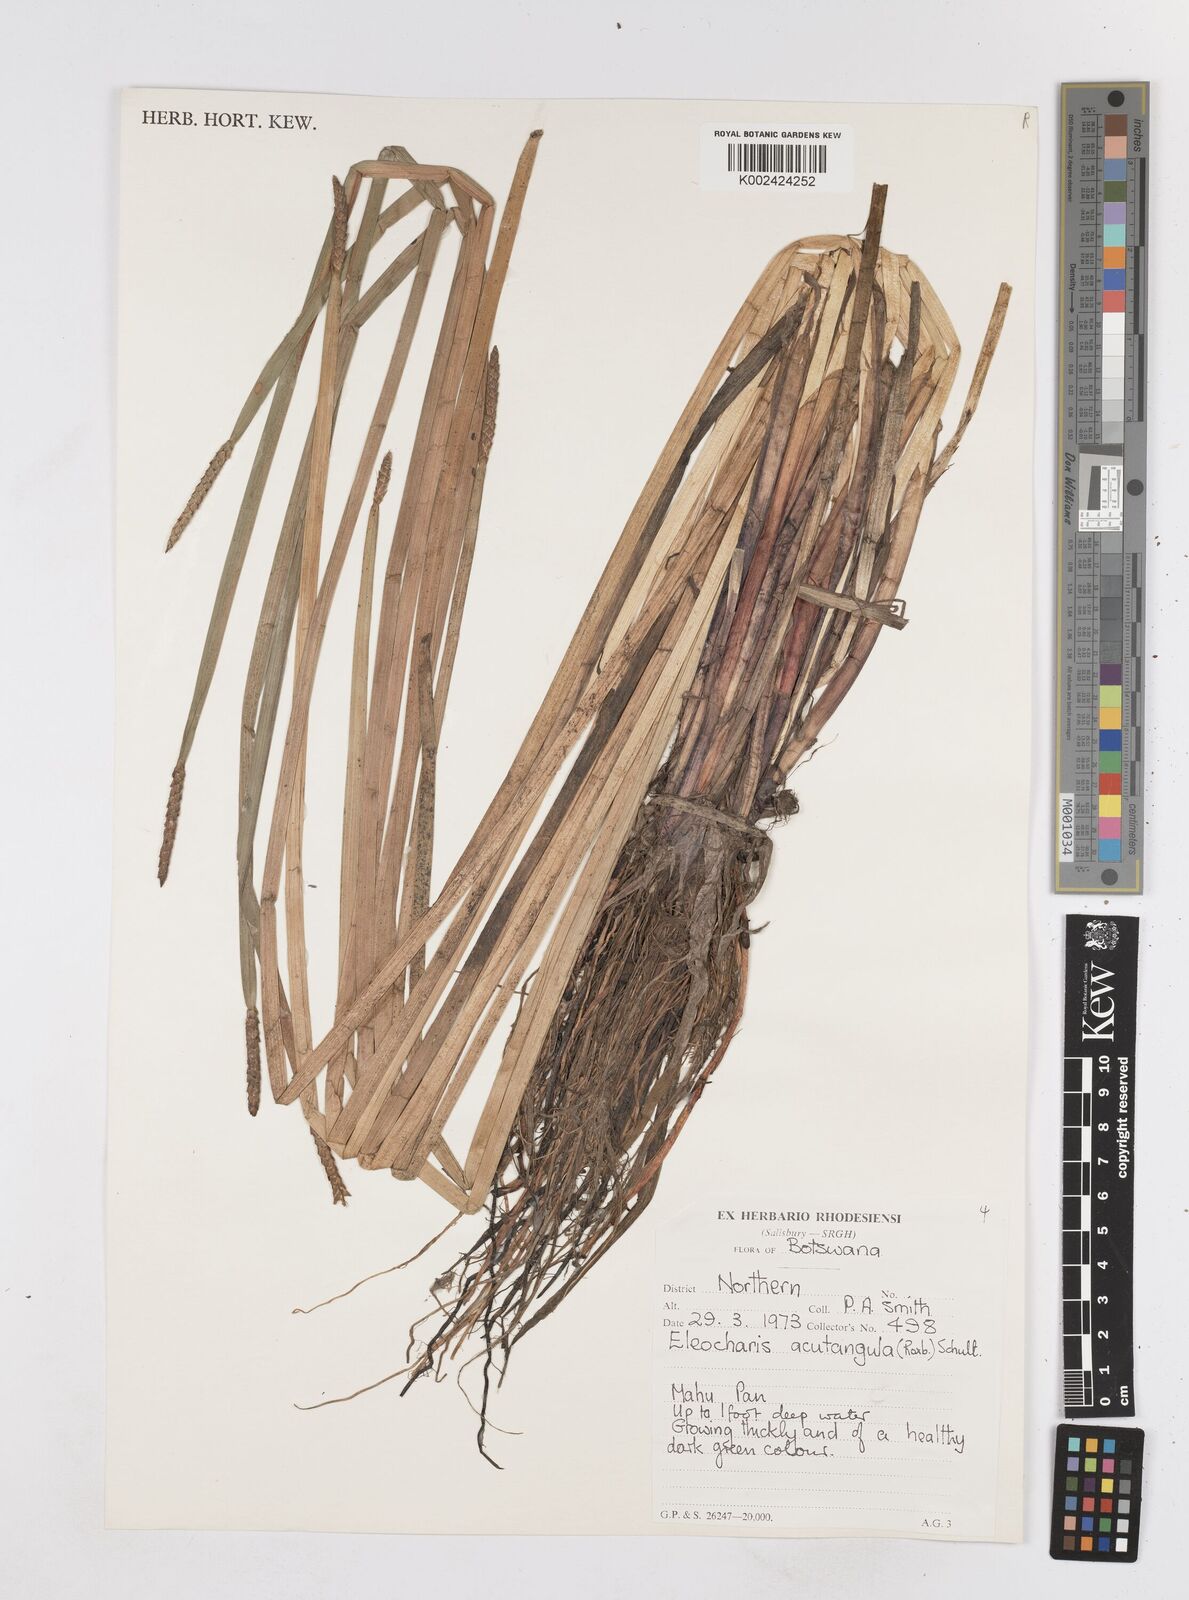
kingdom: Plantae
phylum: Tracheophyta
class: Liliopsida
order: Poales
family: Cyperaceae
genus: Eleocharis
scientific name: Eleocharis acutangula
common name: Acute spikerush
